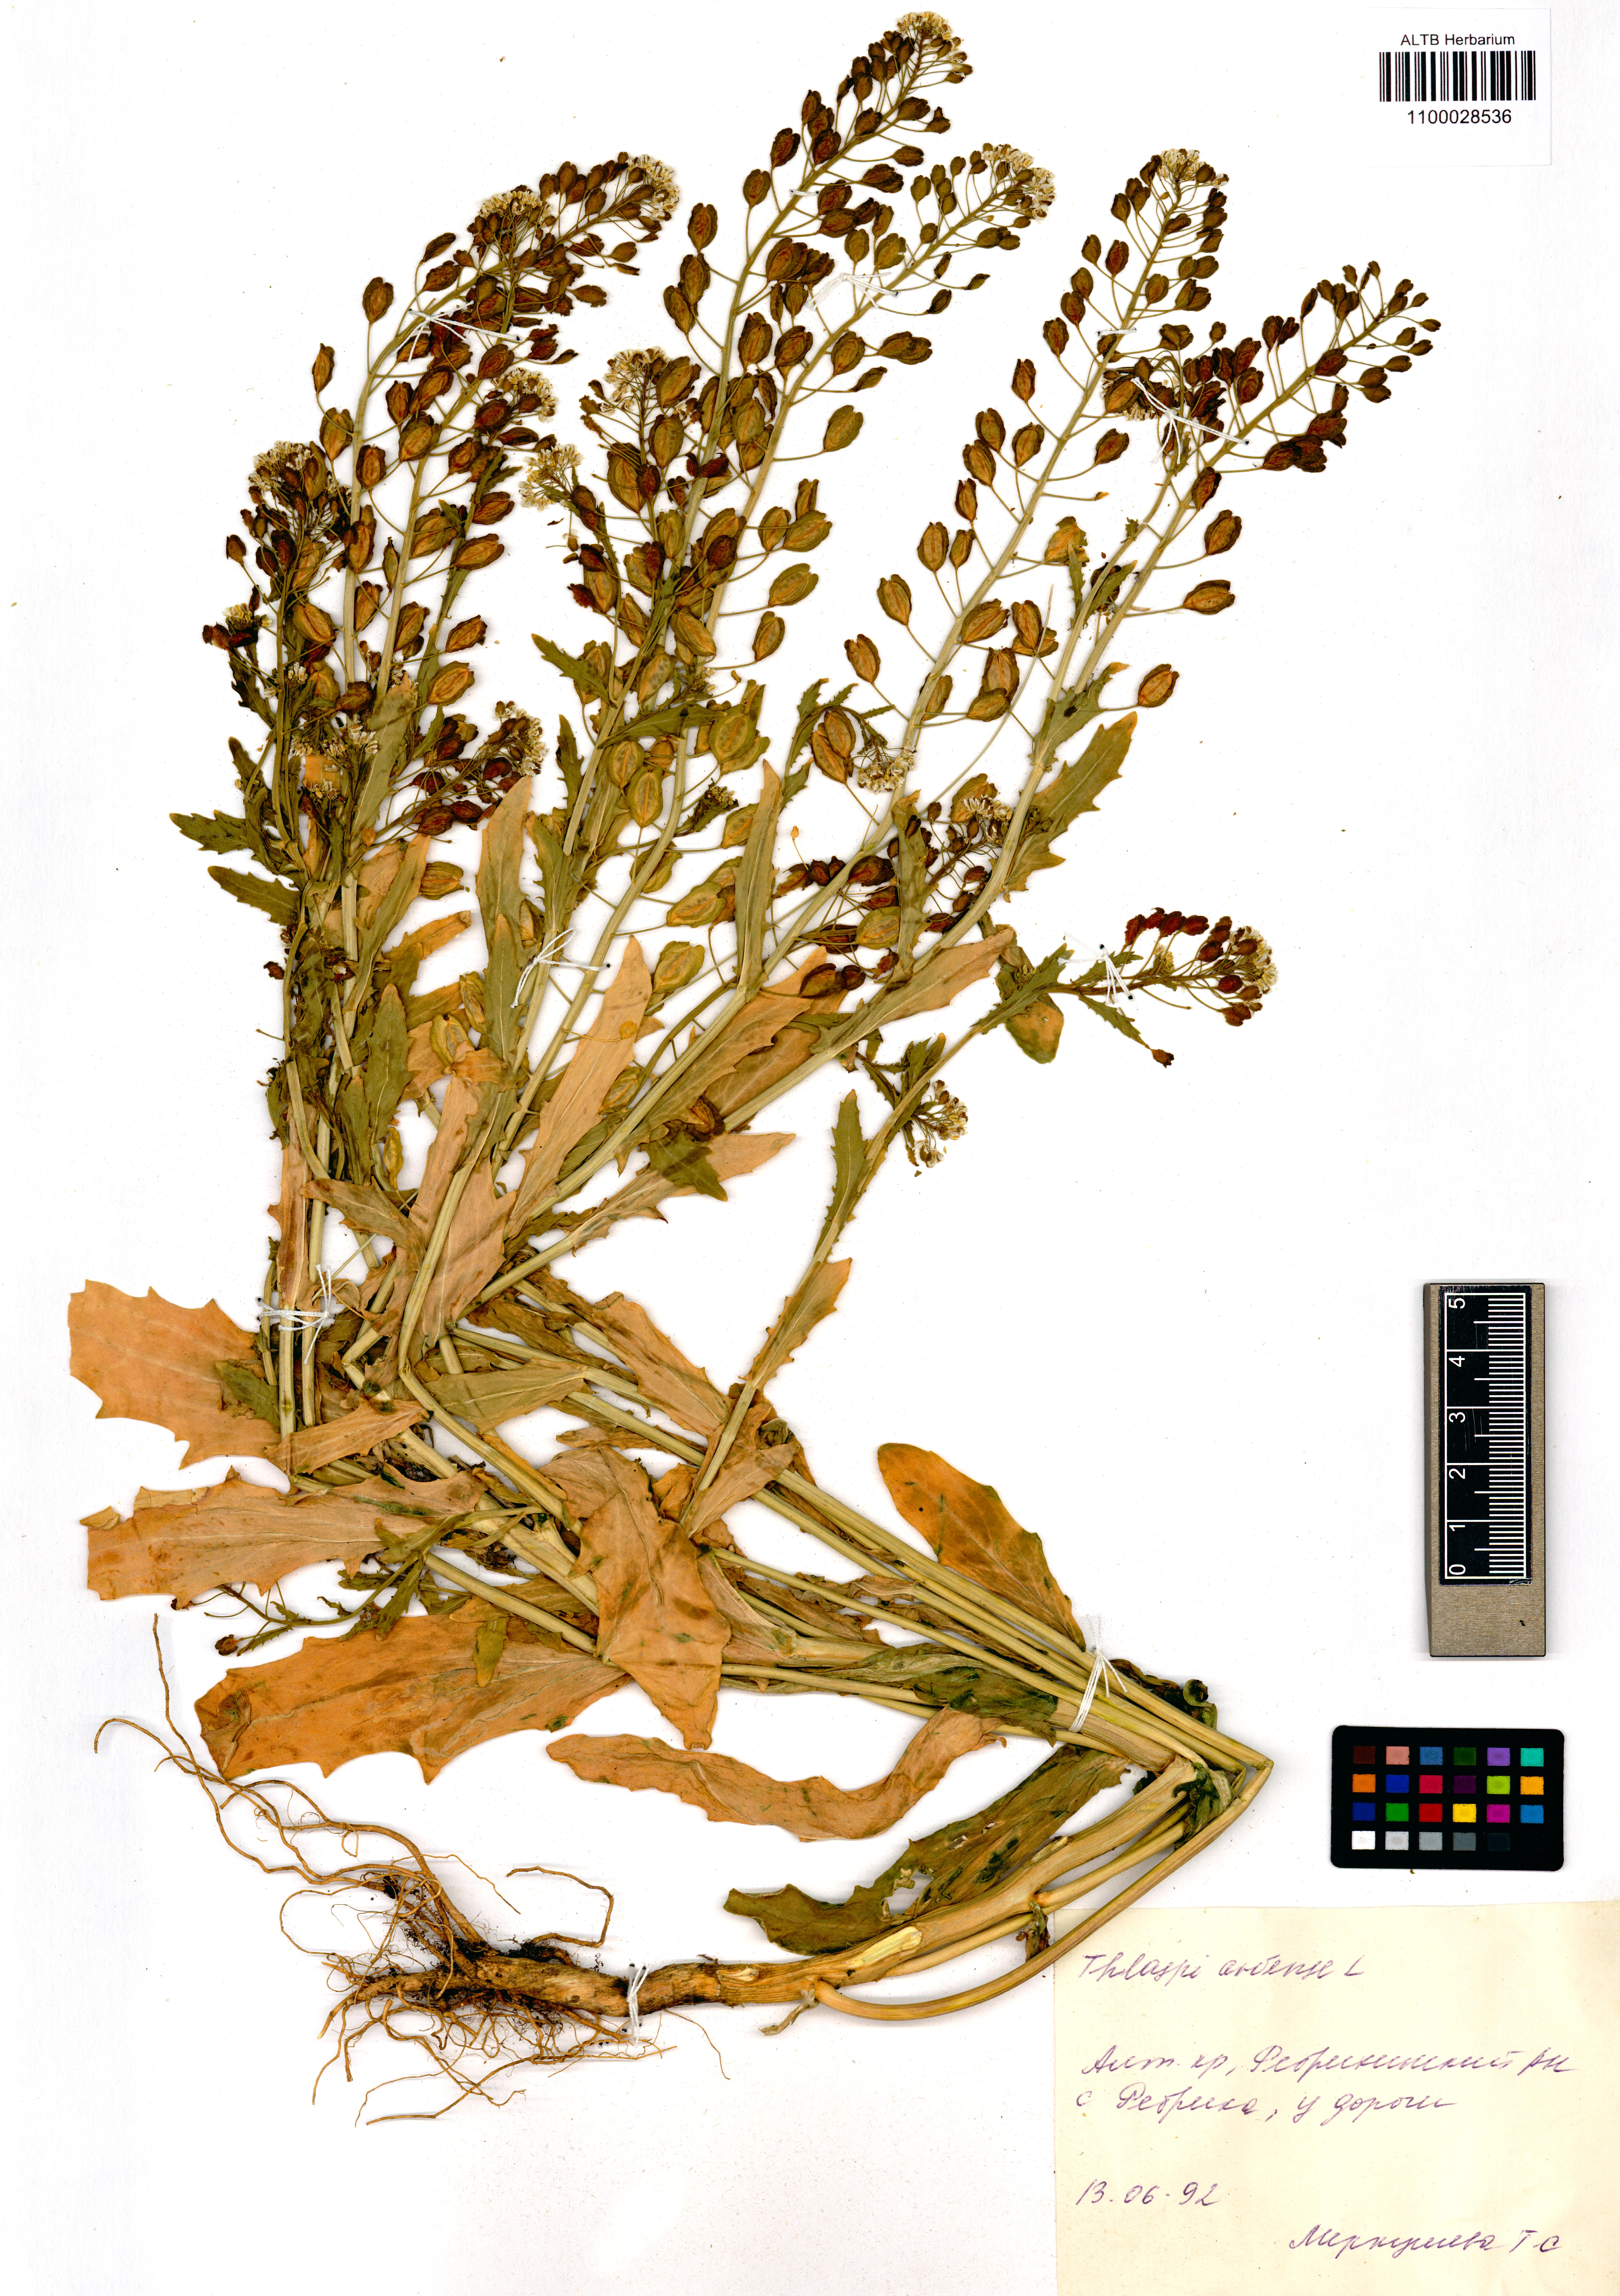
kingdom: Plantae
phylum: Tracheophyta
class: Magnoliopsida
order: Brassicales
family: Brassicaceae
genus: Thlaspi
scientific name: Thlaspi arvense
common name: Field pennycress
